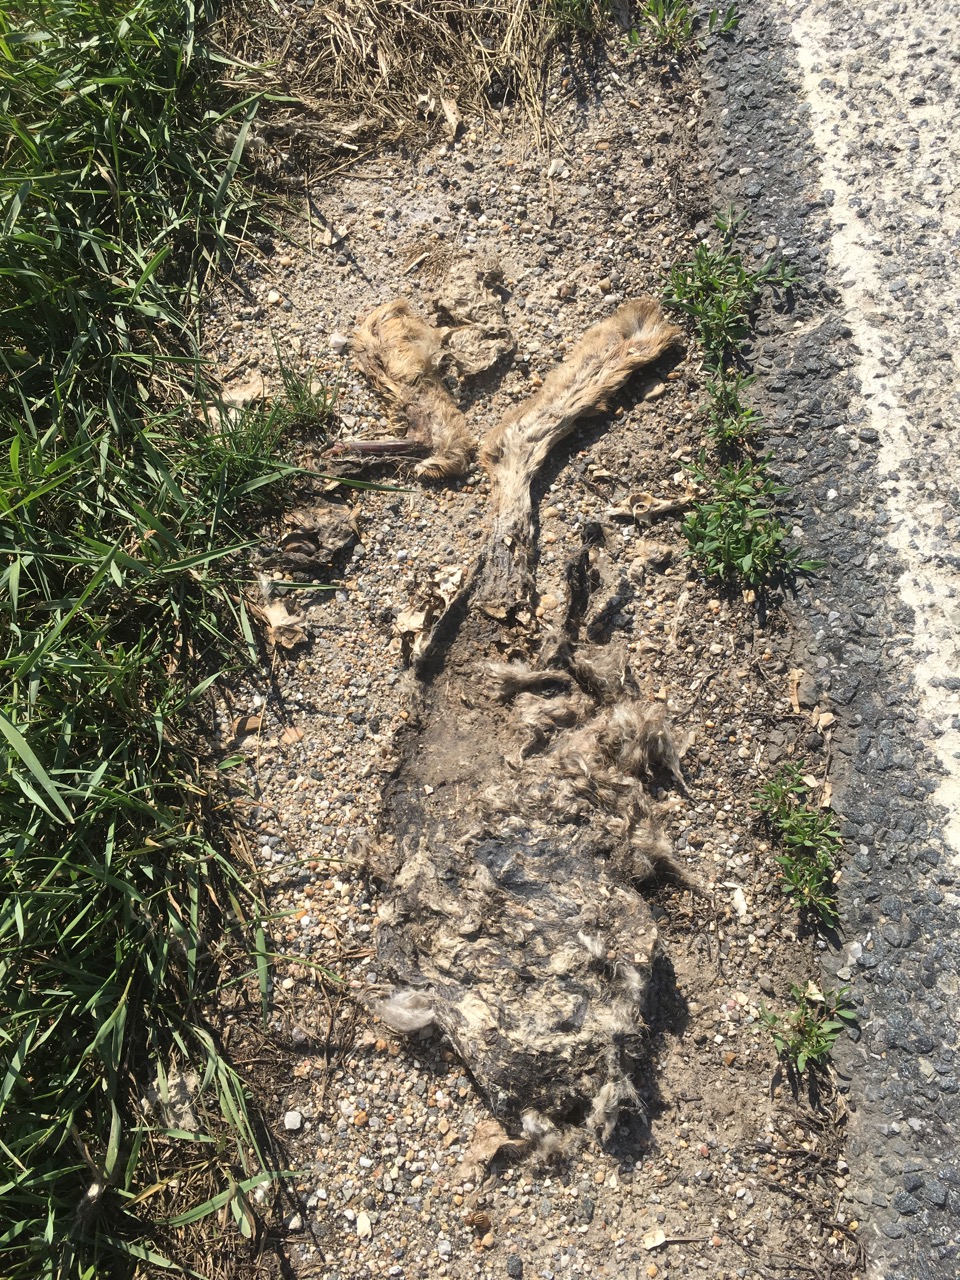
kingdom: Animalia
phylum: Chordata
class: Mammalia
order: Lagomorpha
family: Leporidae
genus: Lepus
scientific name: Lepus europaeus
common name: European hare
